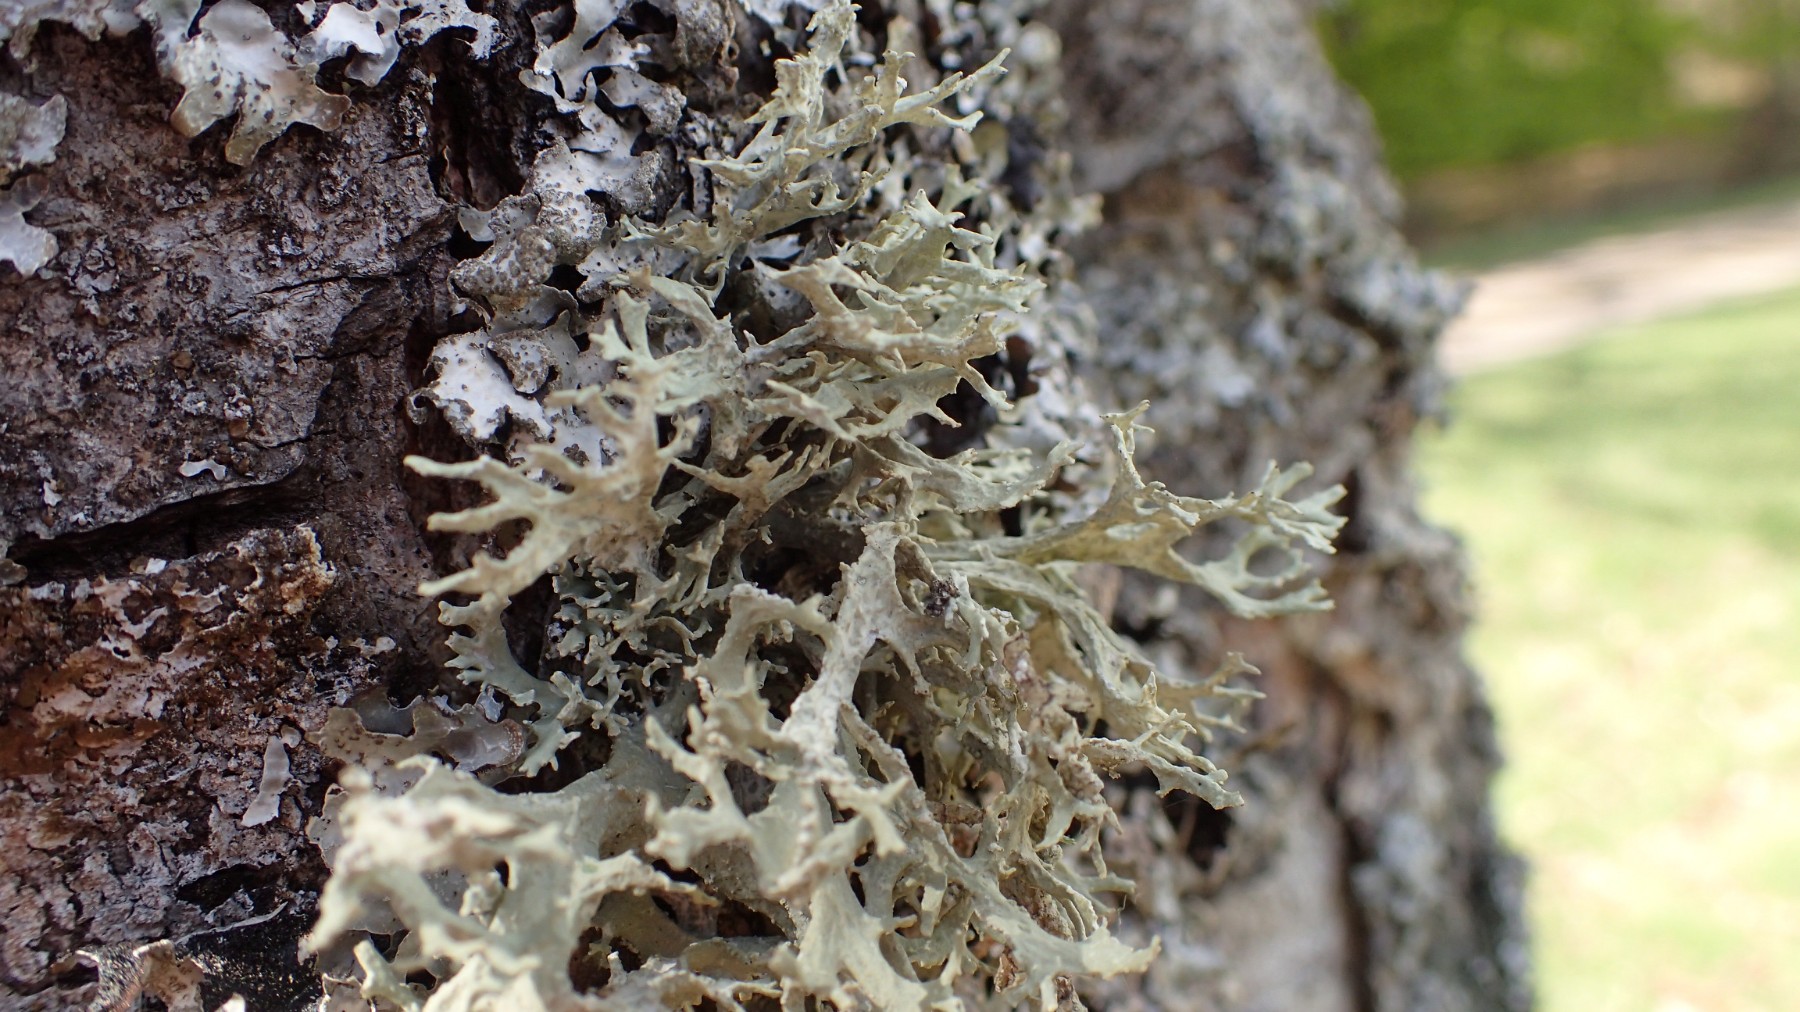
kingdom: Fungi
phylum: Ascomycota
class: Lecanoromycetes
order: Lecanorales
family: Parmeliaceae
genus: Evernia
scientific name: Evernia prunastri
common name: almindelig slåenlav
